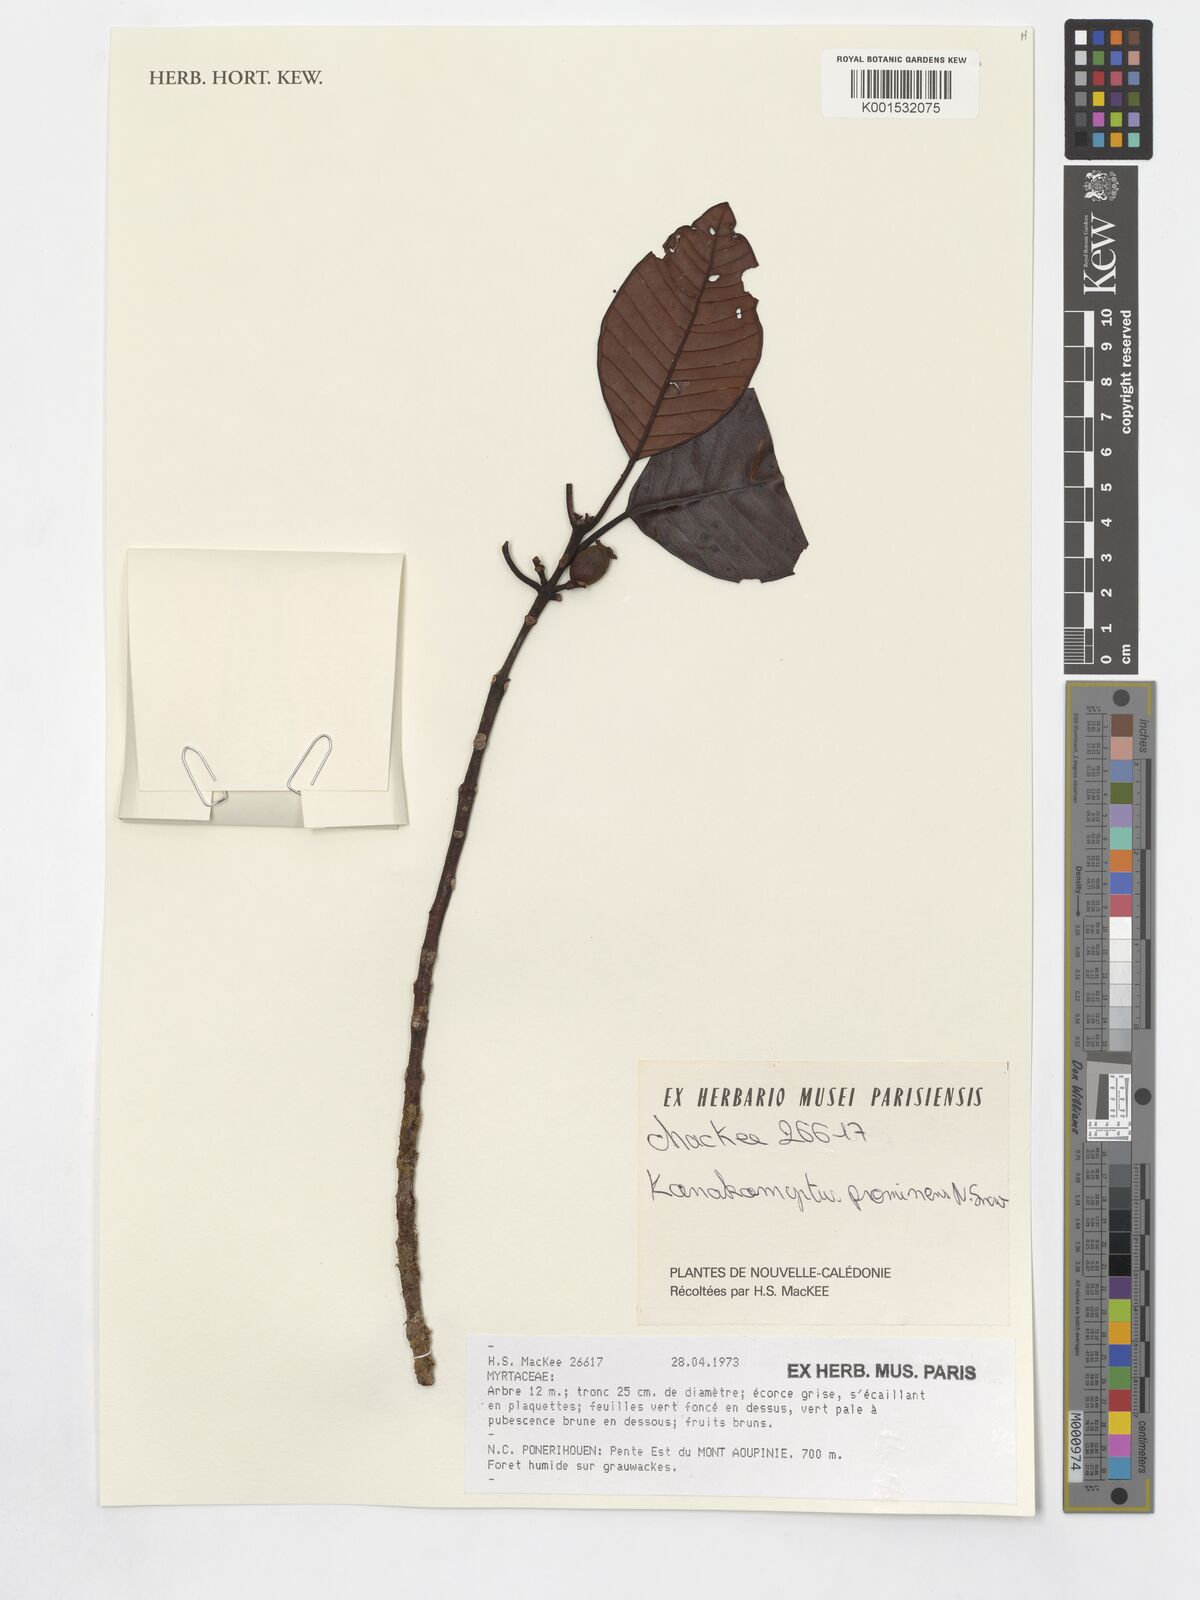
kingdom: Plantae
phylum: Tracheophyta
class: Magnoliopsida
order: Myrtales
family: Myrtaceae
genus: Kanakomyrtus
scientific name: Kanakomyrtus prominens
